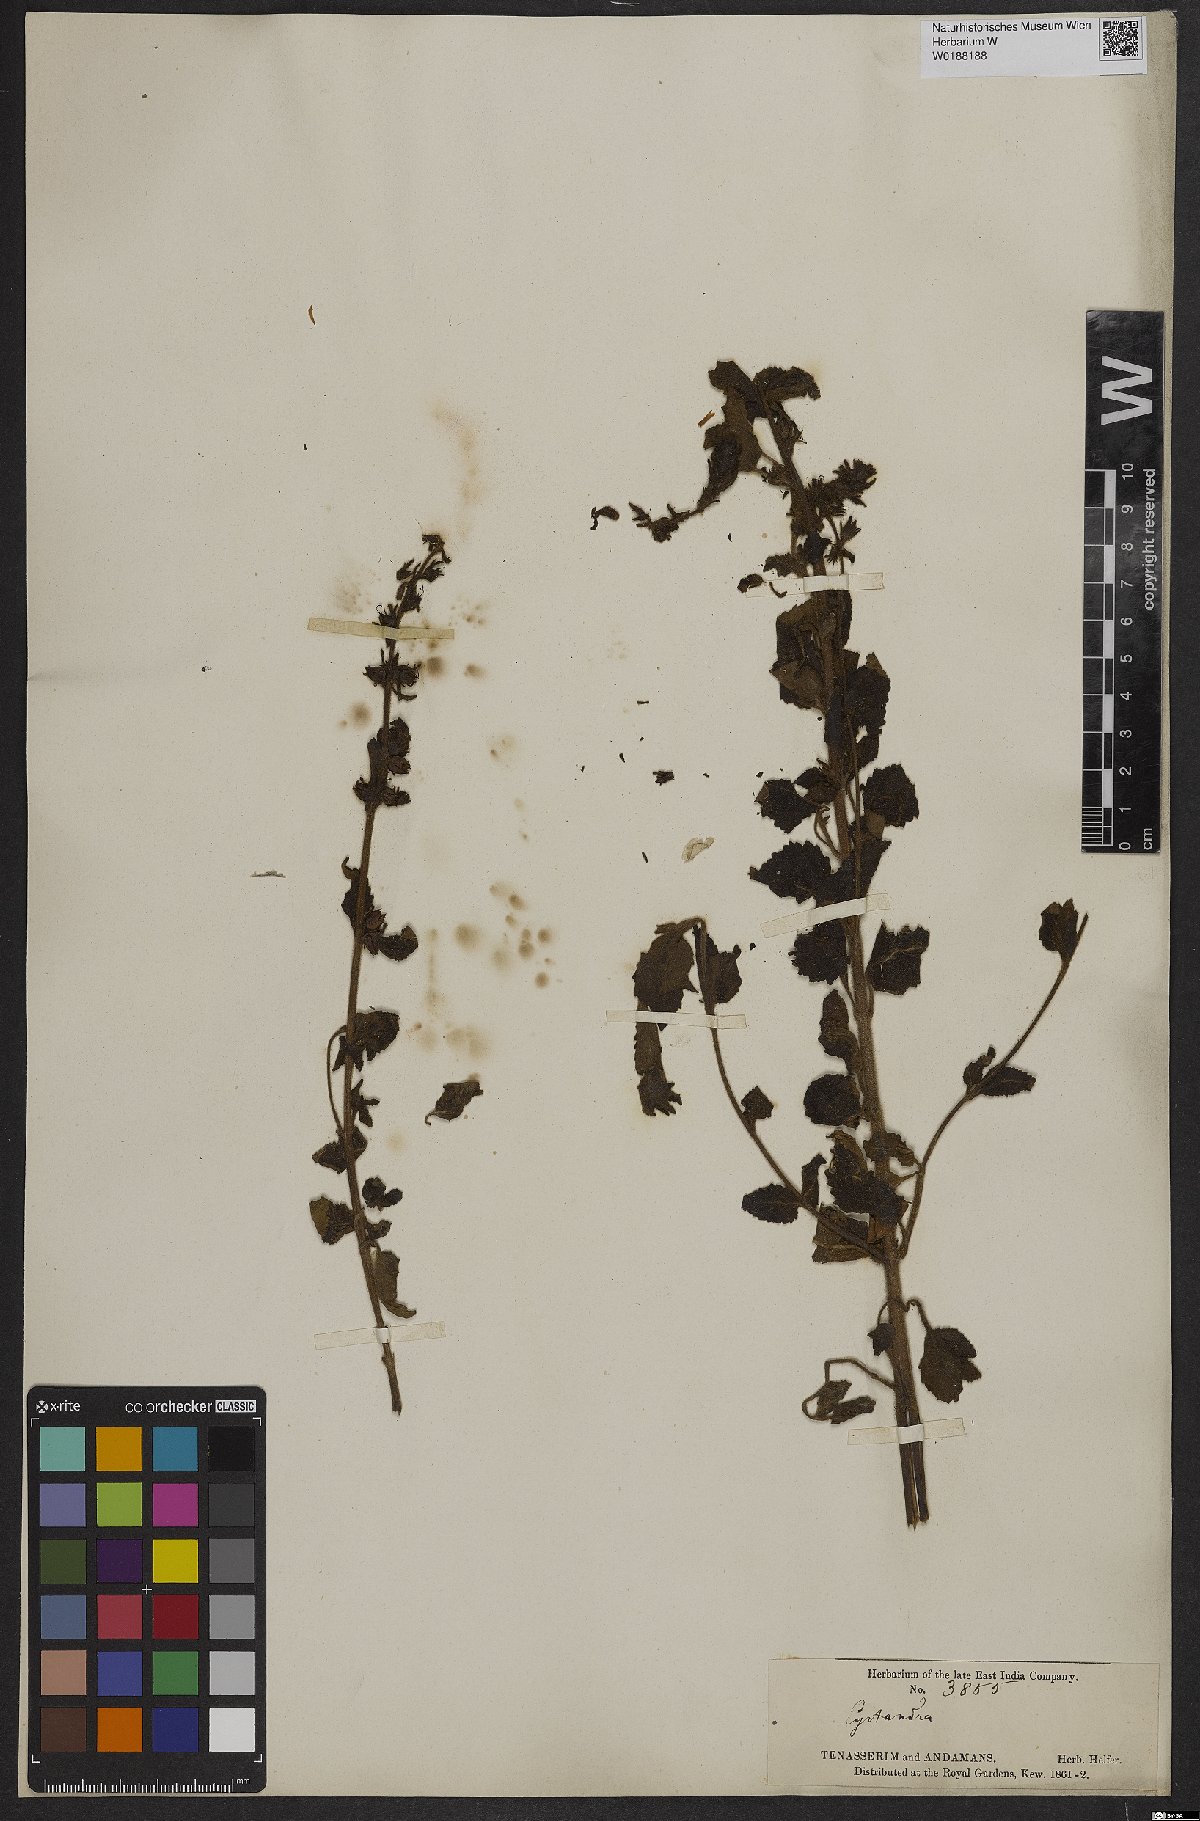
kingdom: Plantae
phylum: Tracheophyta
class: Magnoliopsida
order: Lamiales
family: Gesneriaceae
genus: Cyrtandra
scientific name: Cyrtandra
